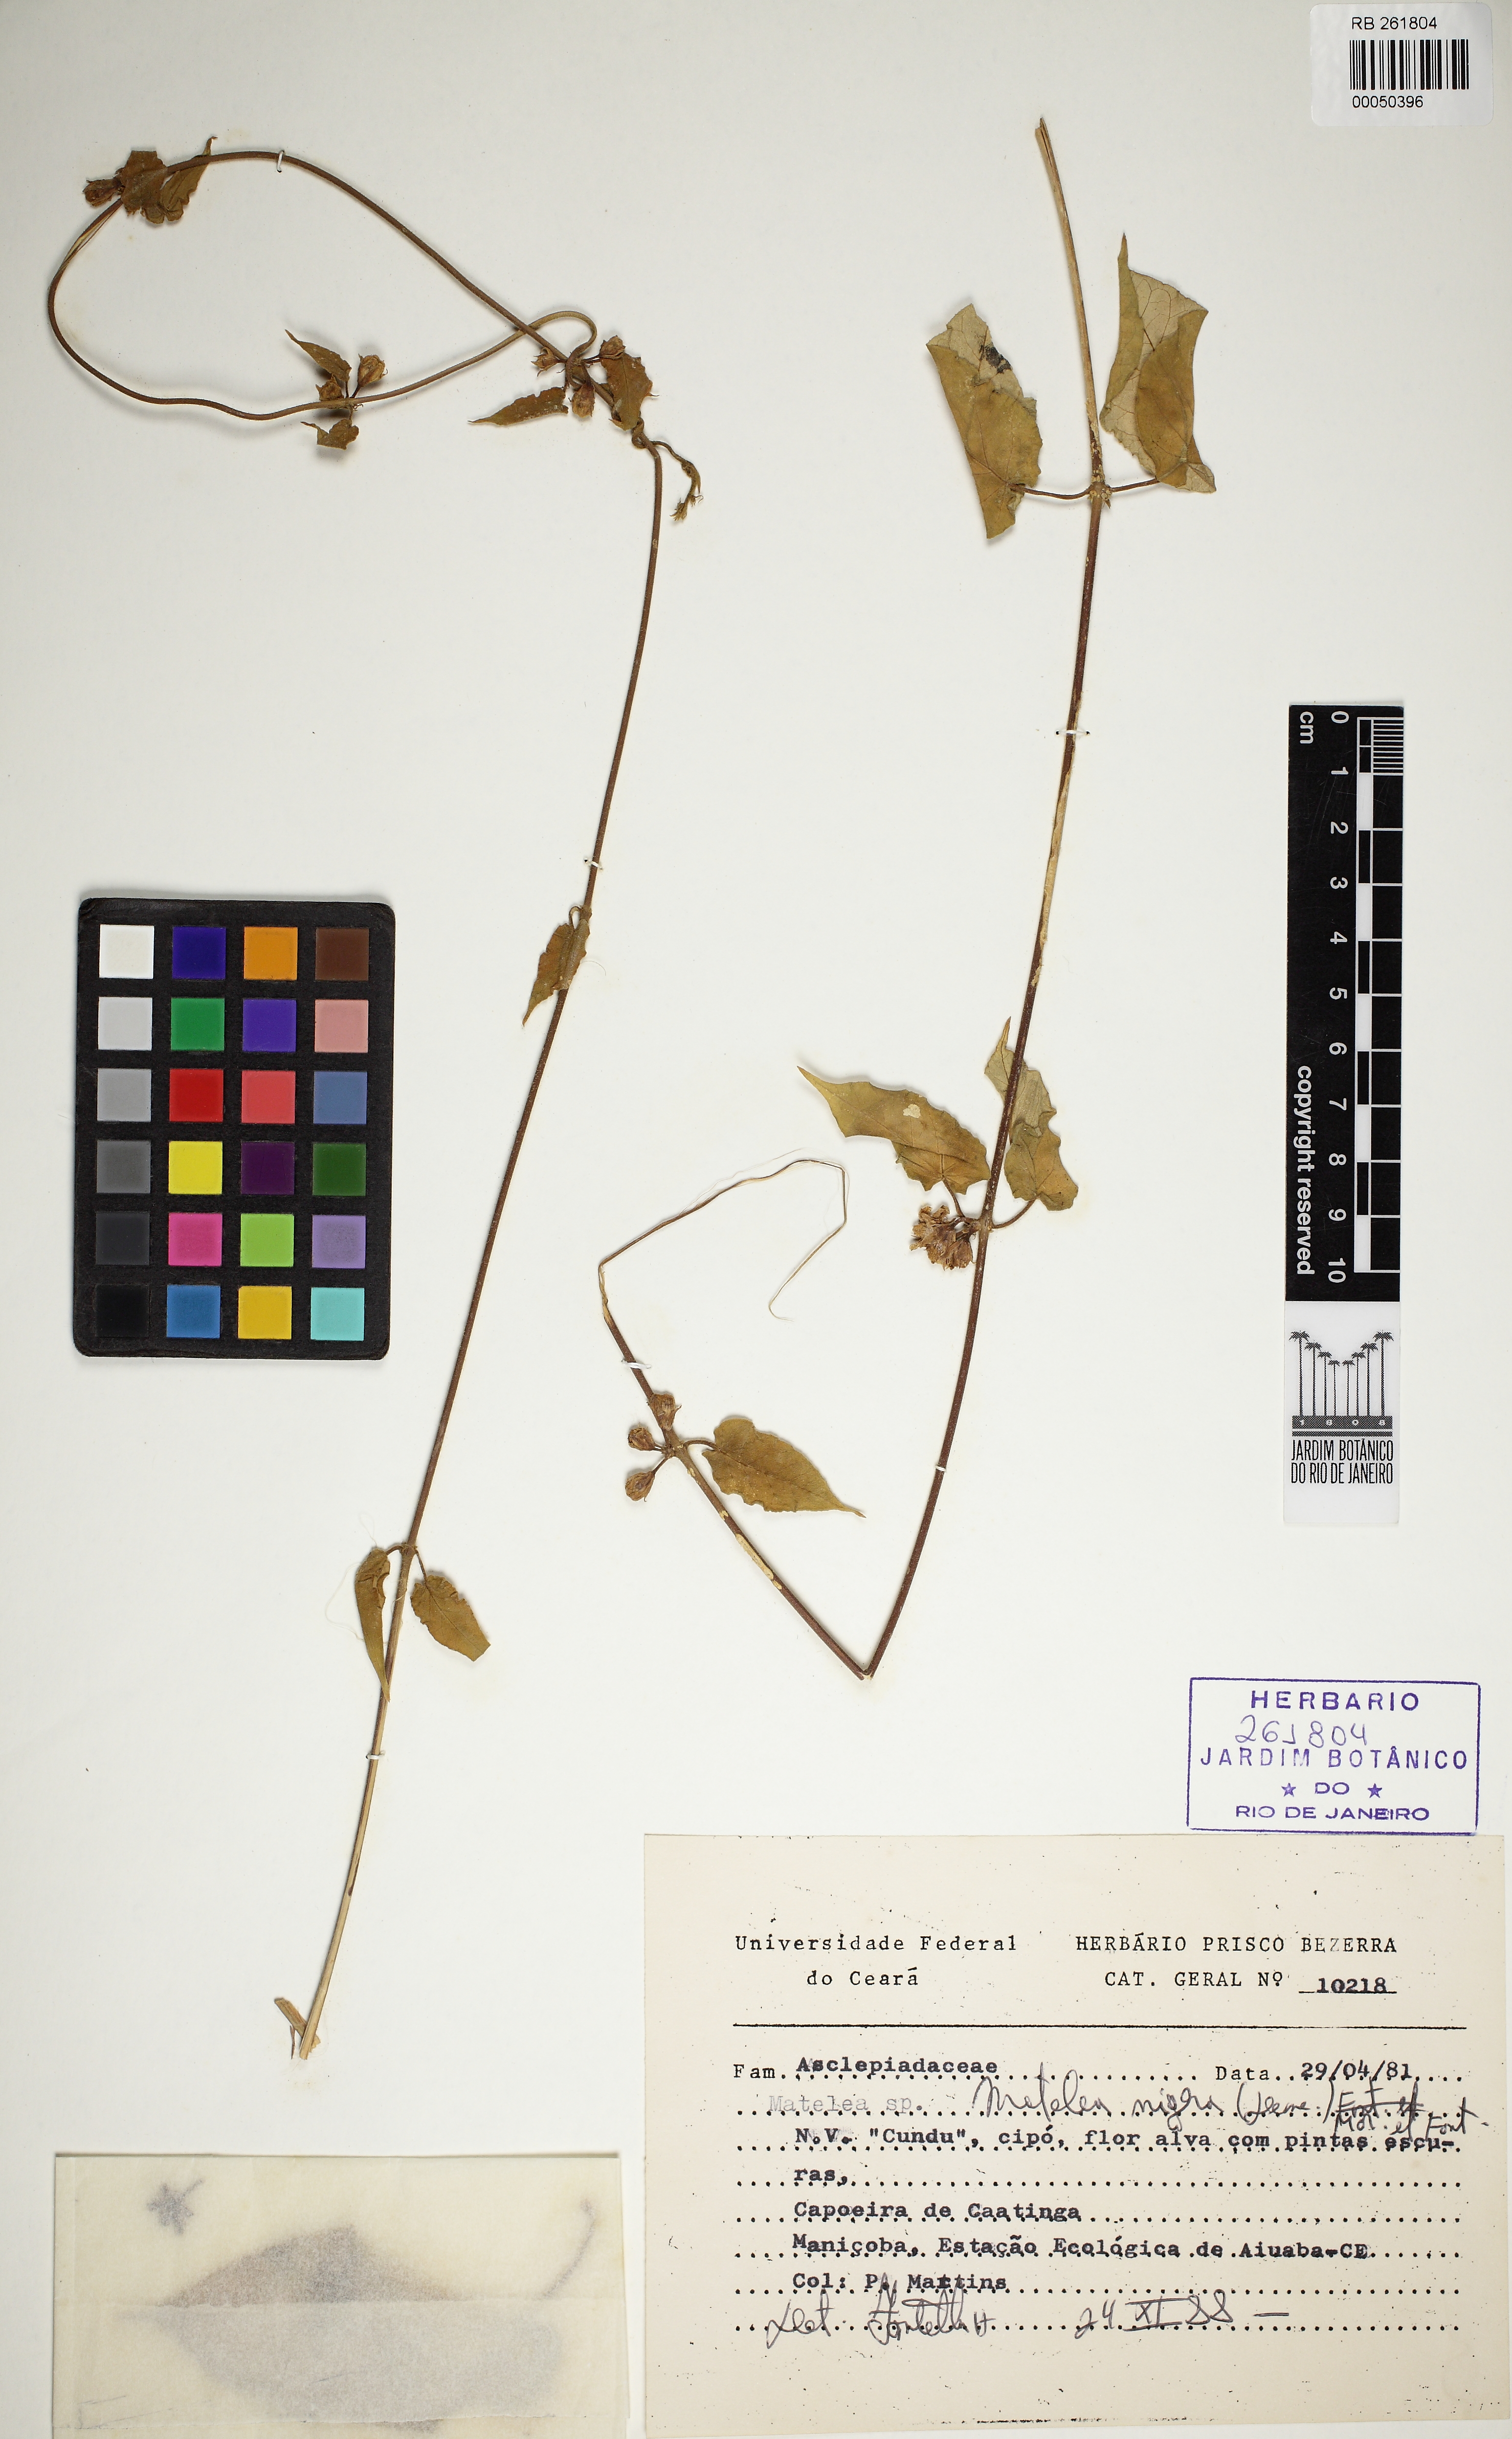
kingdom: Plantae
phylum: Tracheophyta
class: Magnoliopsida
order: Gentianales
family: Apocynaceae
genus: Ibatia
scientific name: Ibatia nigra
